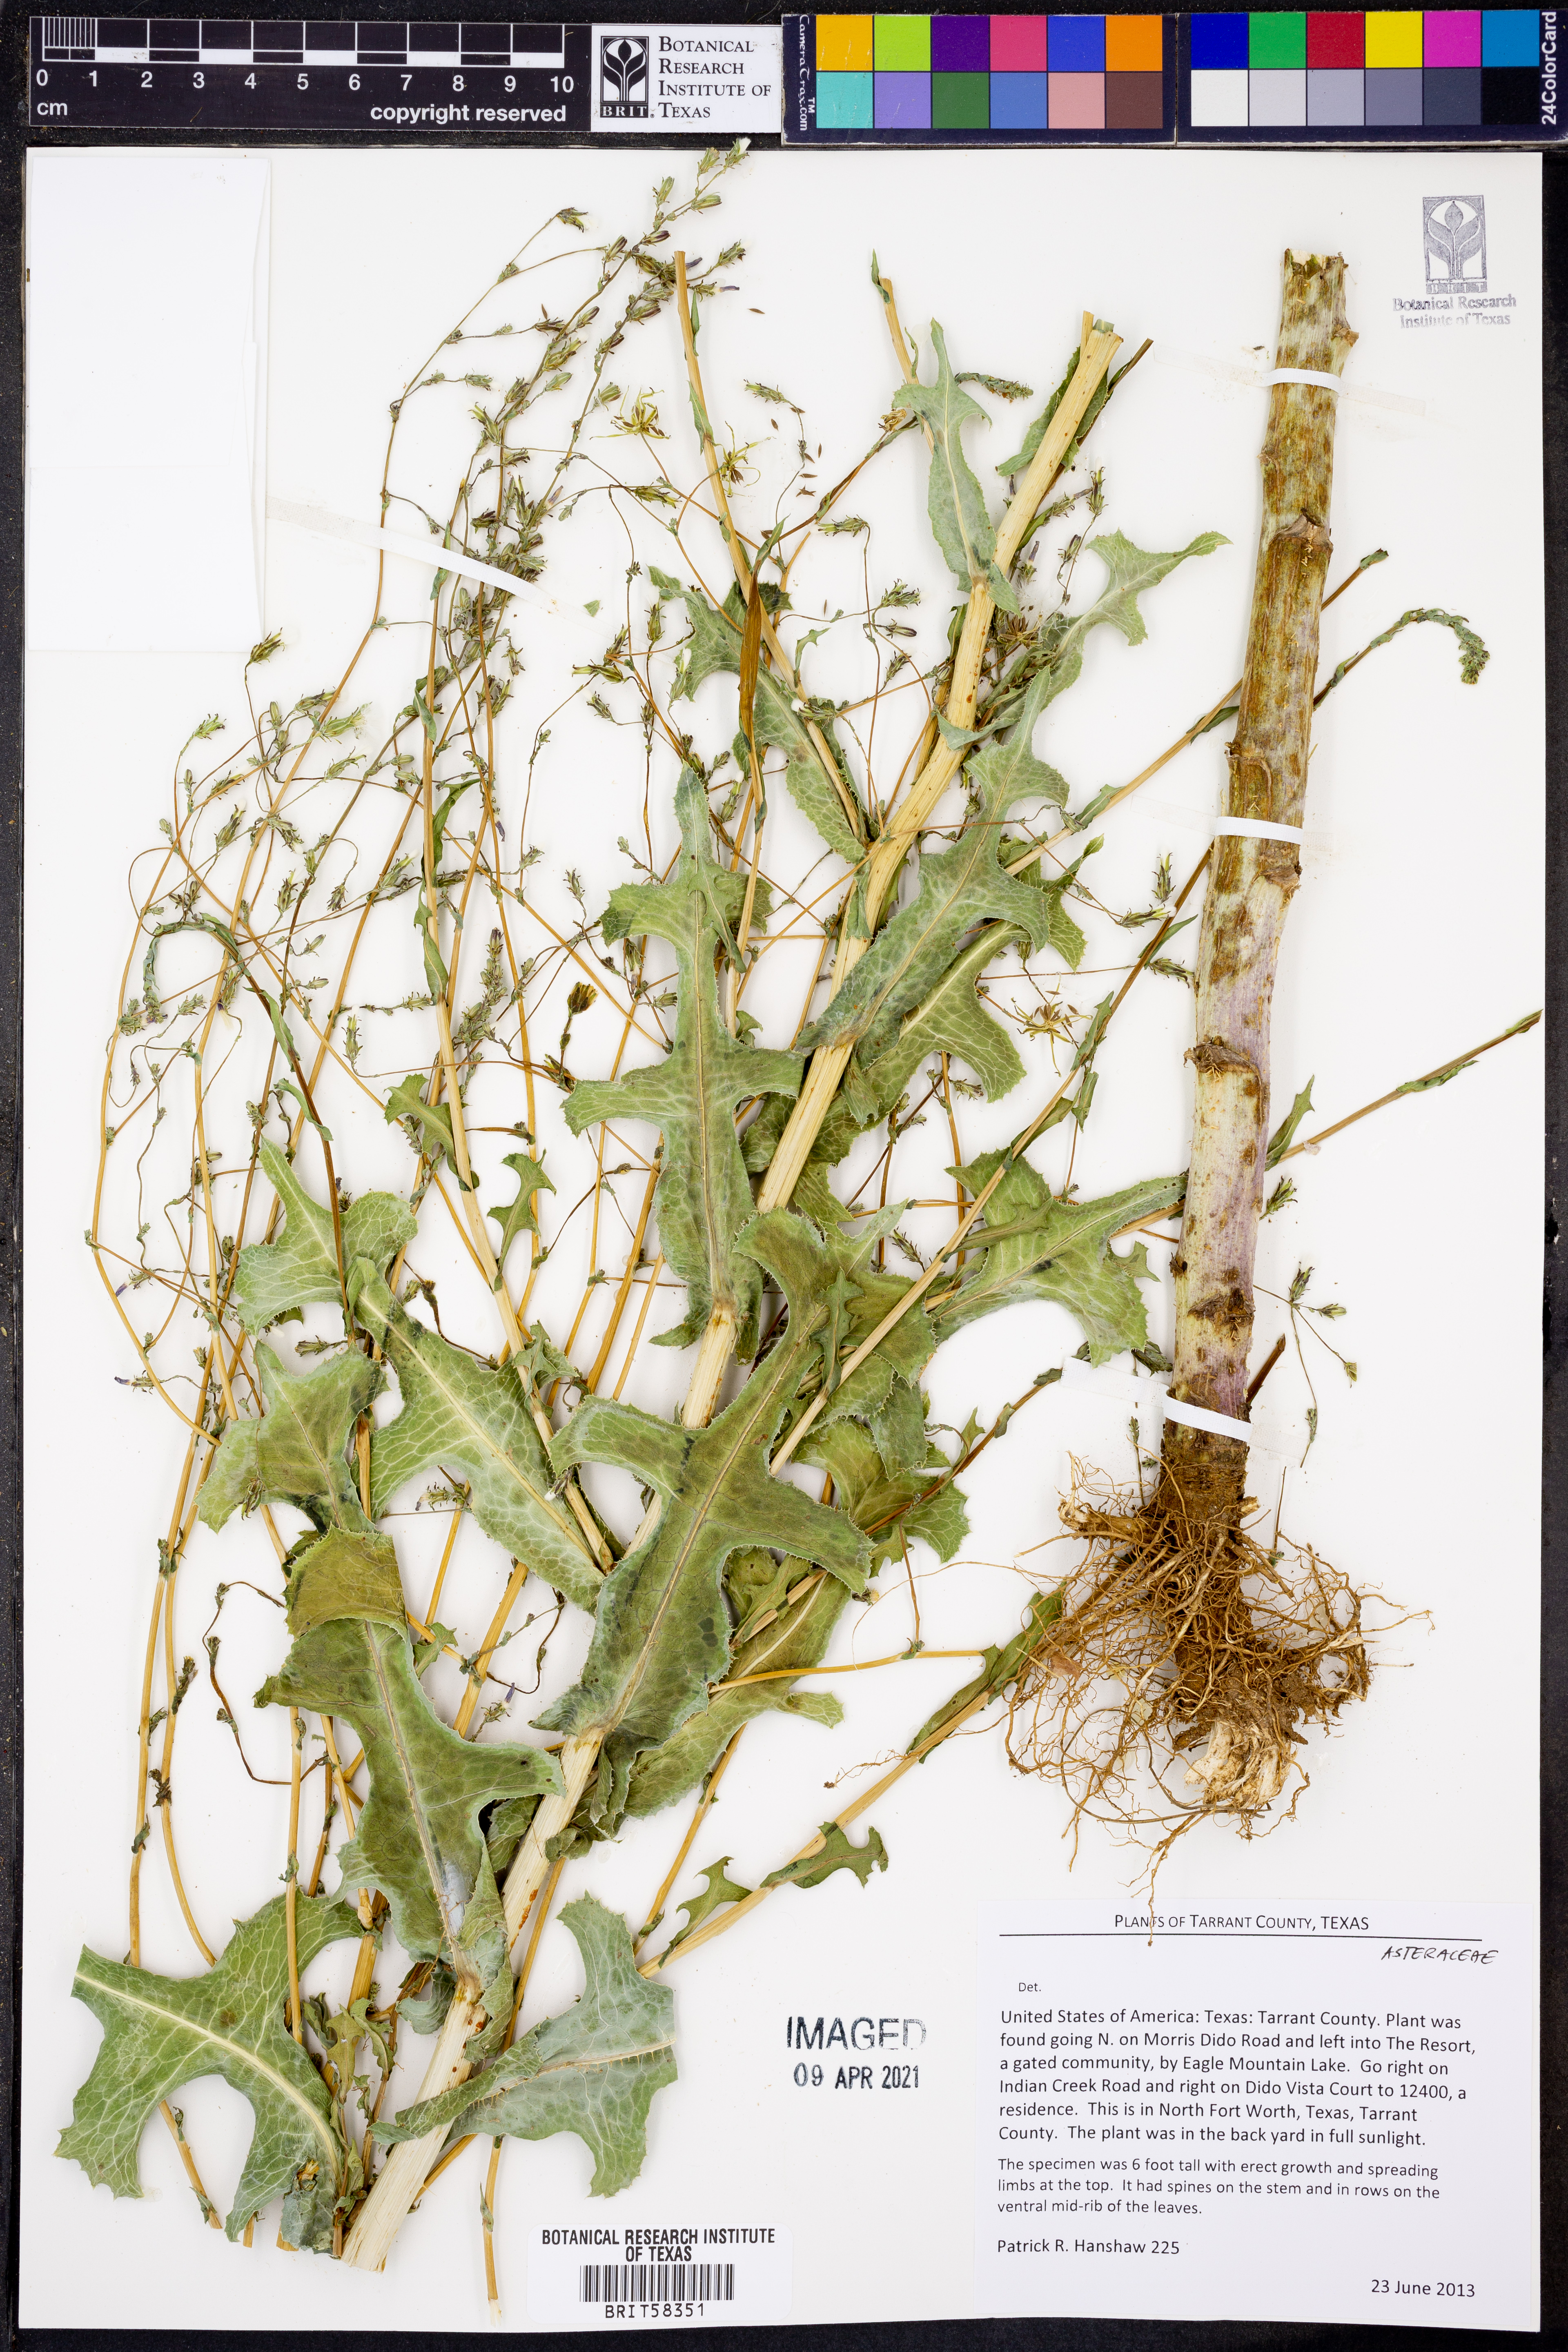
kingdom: Plantae
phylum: Tracheophyta
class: Magnoliopsida
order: Asterales
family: Asteraceae
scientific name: Asteraceae
